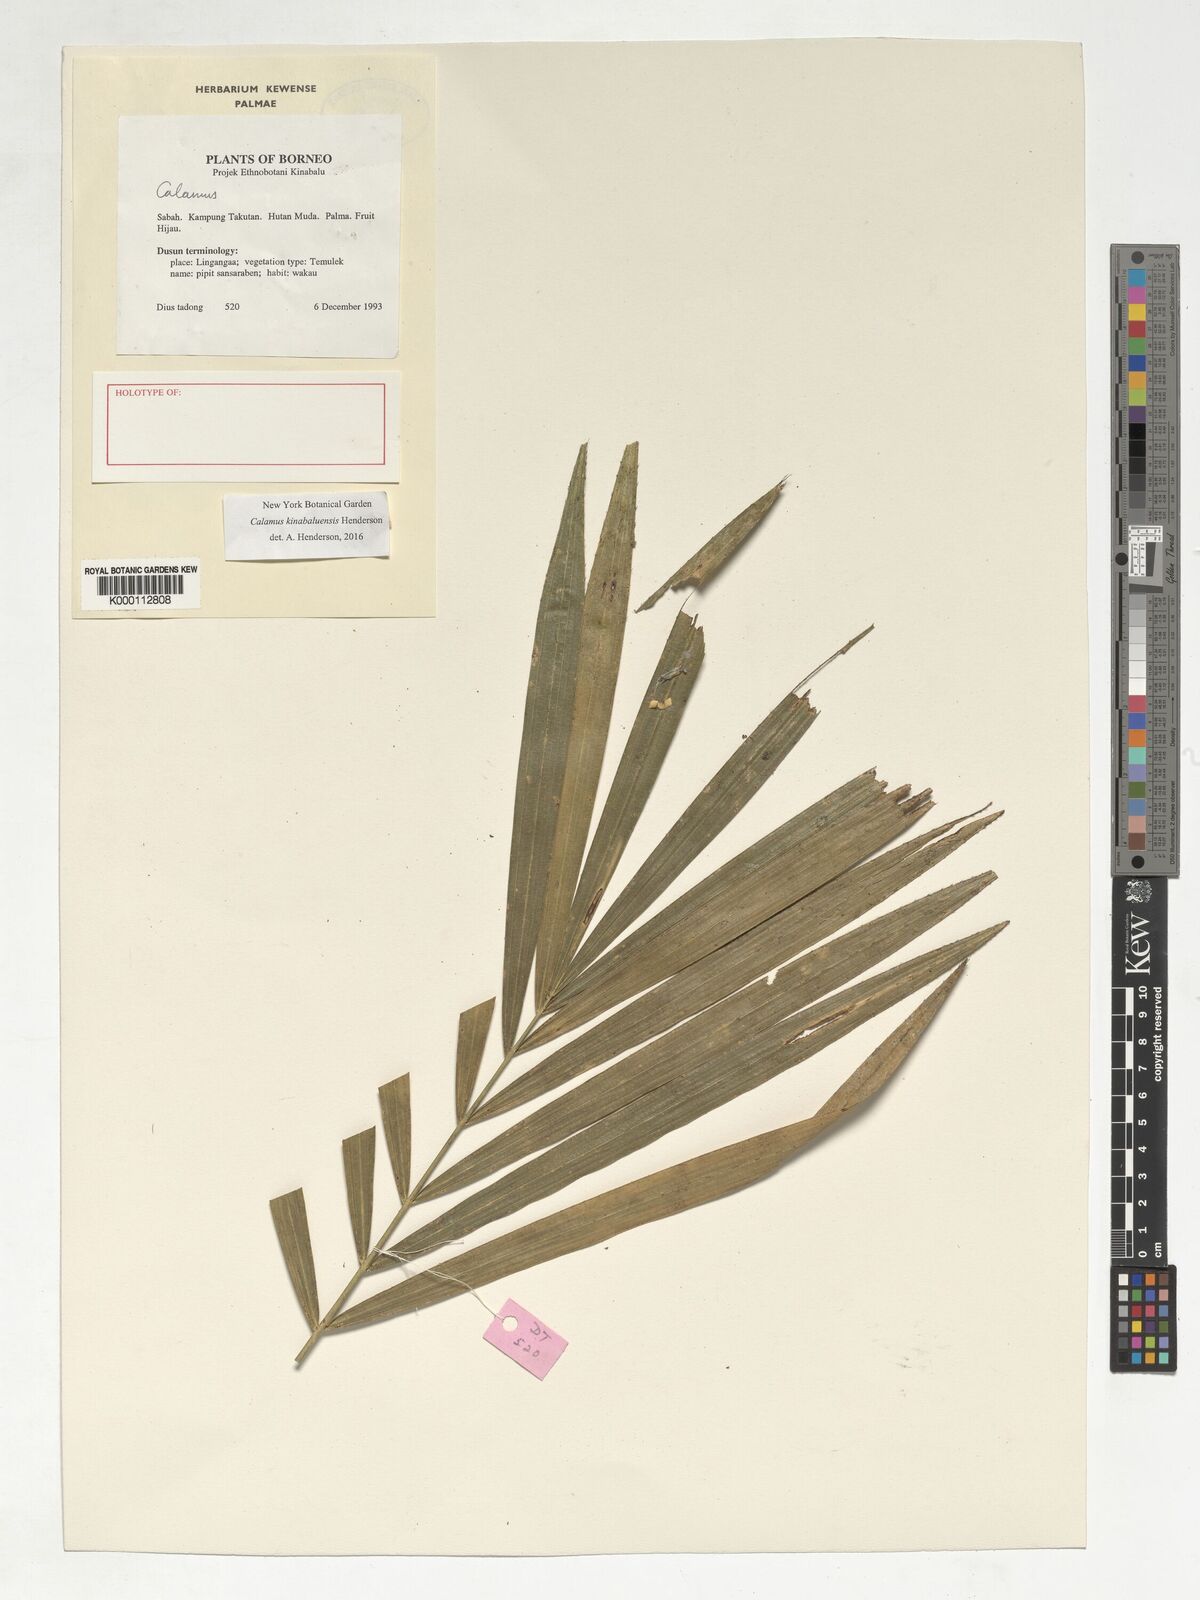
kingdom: Plantae
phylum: Tracheophyta
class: Liliopsida
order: Arecales
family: Arecaceae
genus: Calamus
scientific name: Calamus
